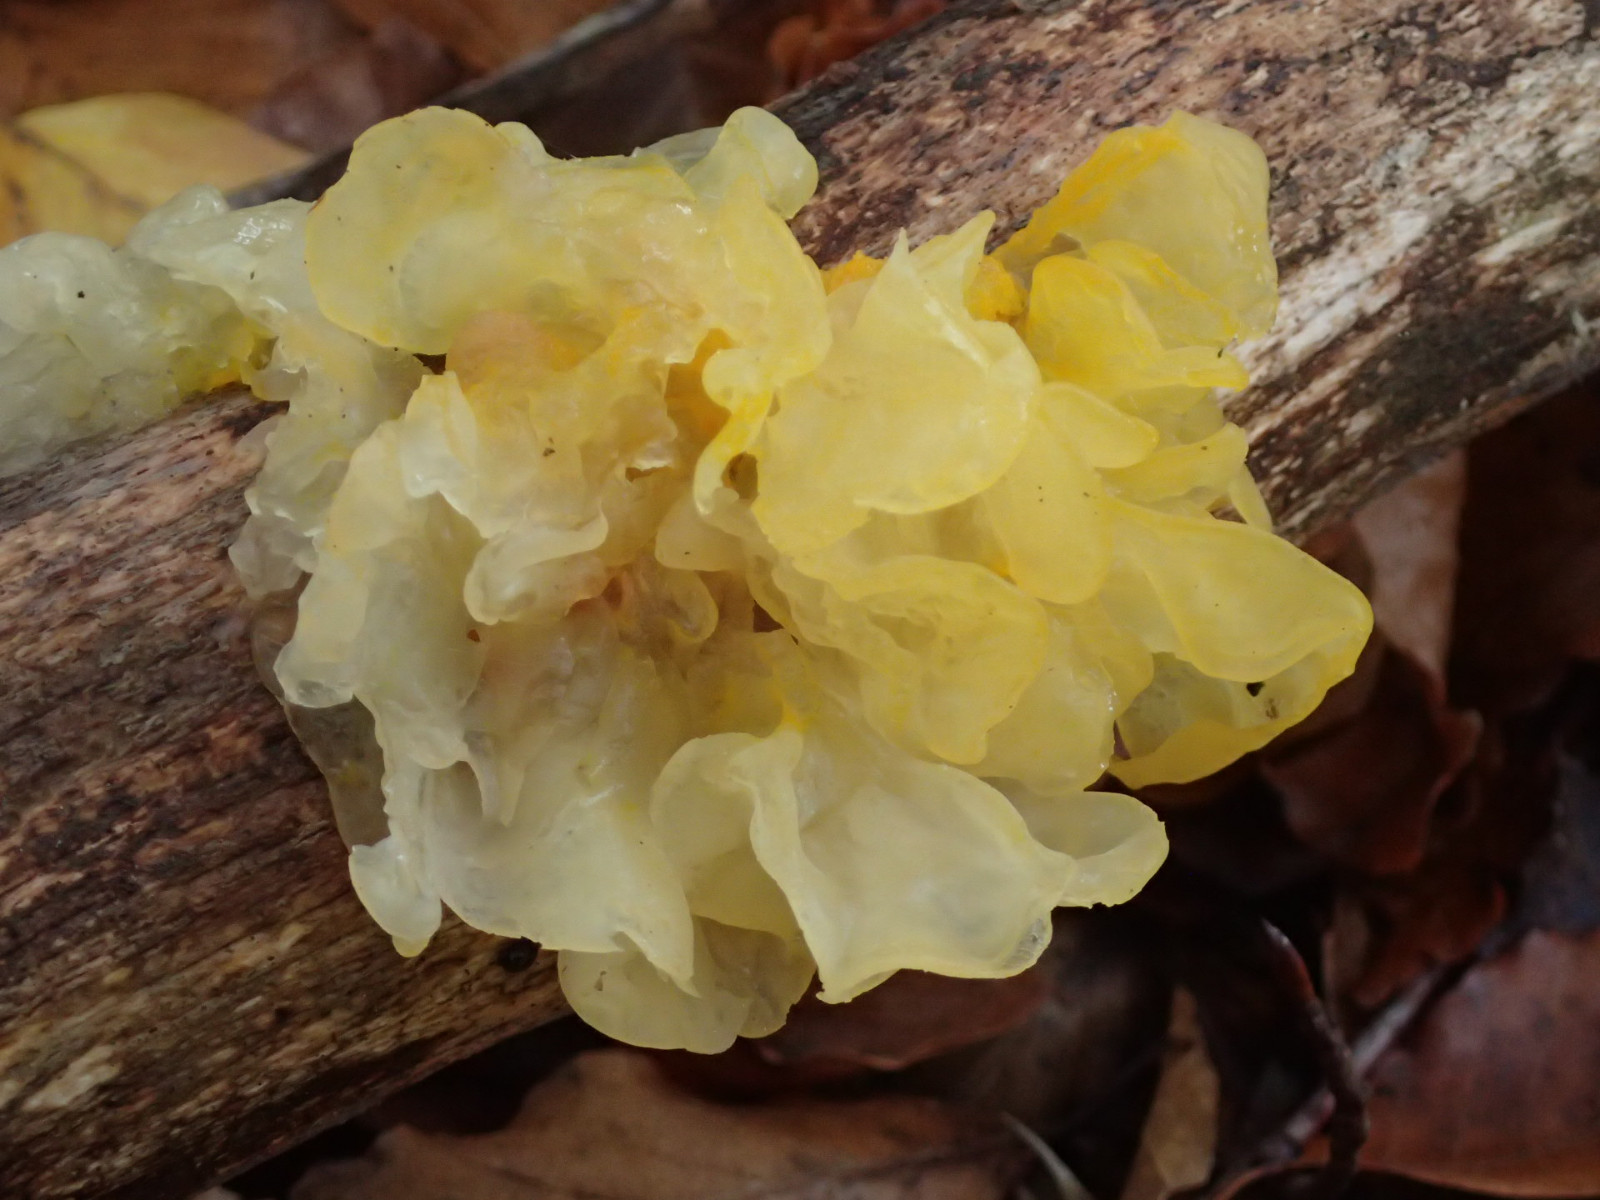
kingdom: Fungi
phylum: Basidiomycota
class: Tremellomycetes
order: Tremellales
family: Tremellaceae
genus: Tremella
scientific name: Tremella mesenterica
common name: gul bævresvamp
